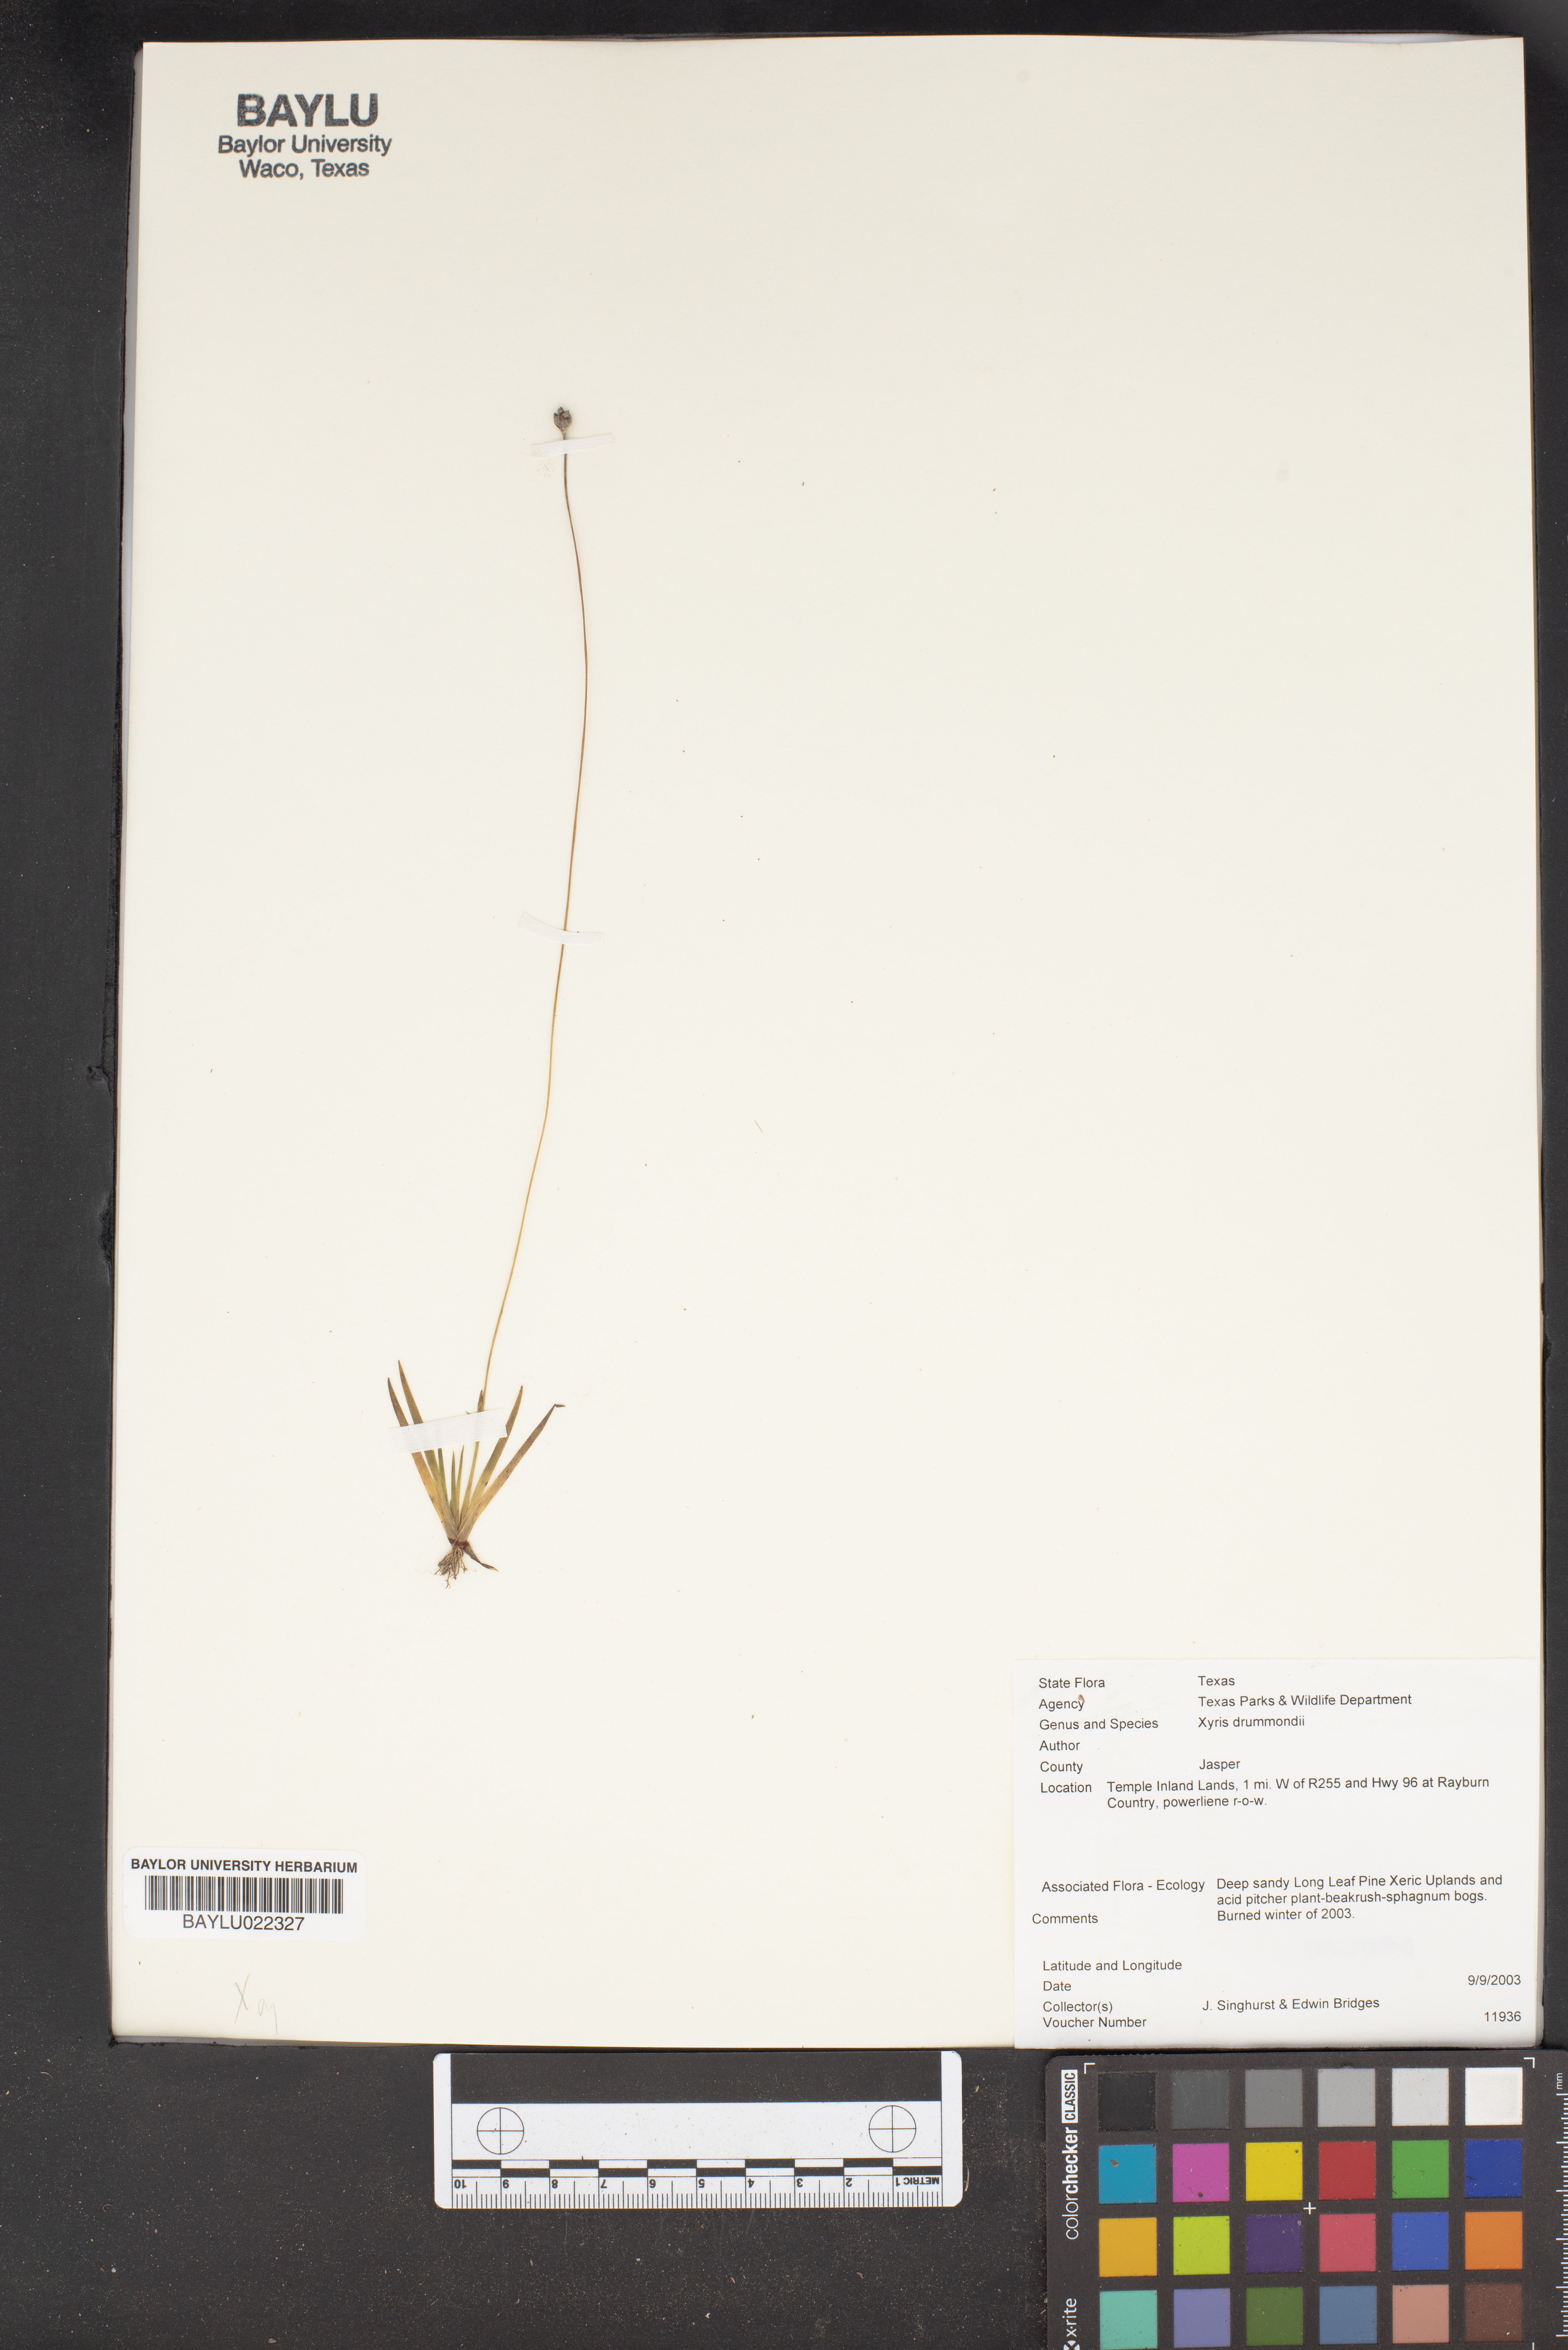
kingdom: Plantae
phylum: Tracheophyta
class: Liliopsida
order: Poales
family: Xyridaceae
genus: Xyris
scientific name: Xyris drummondii
